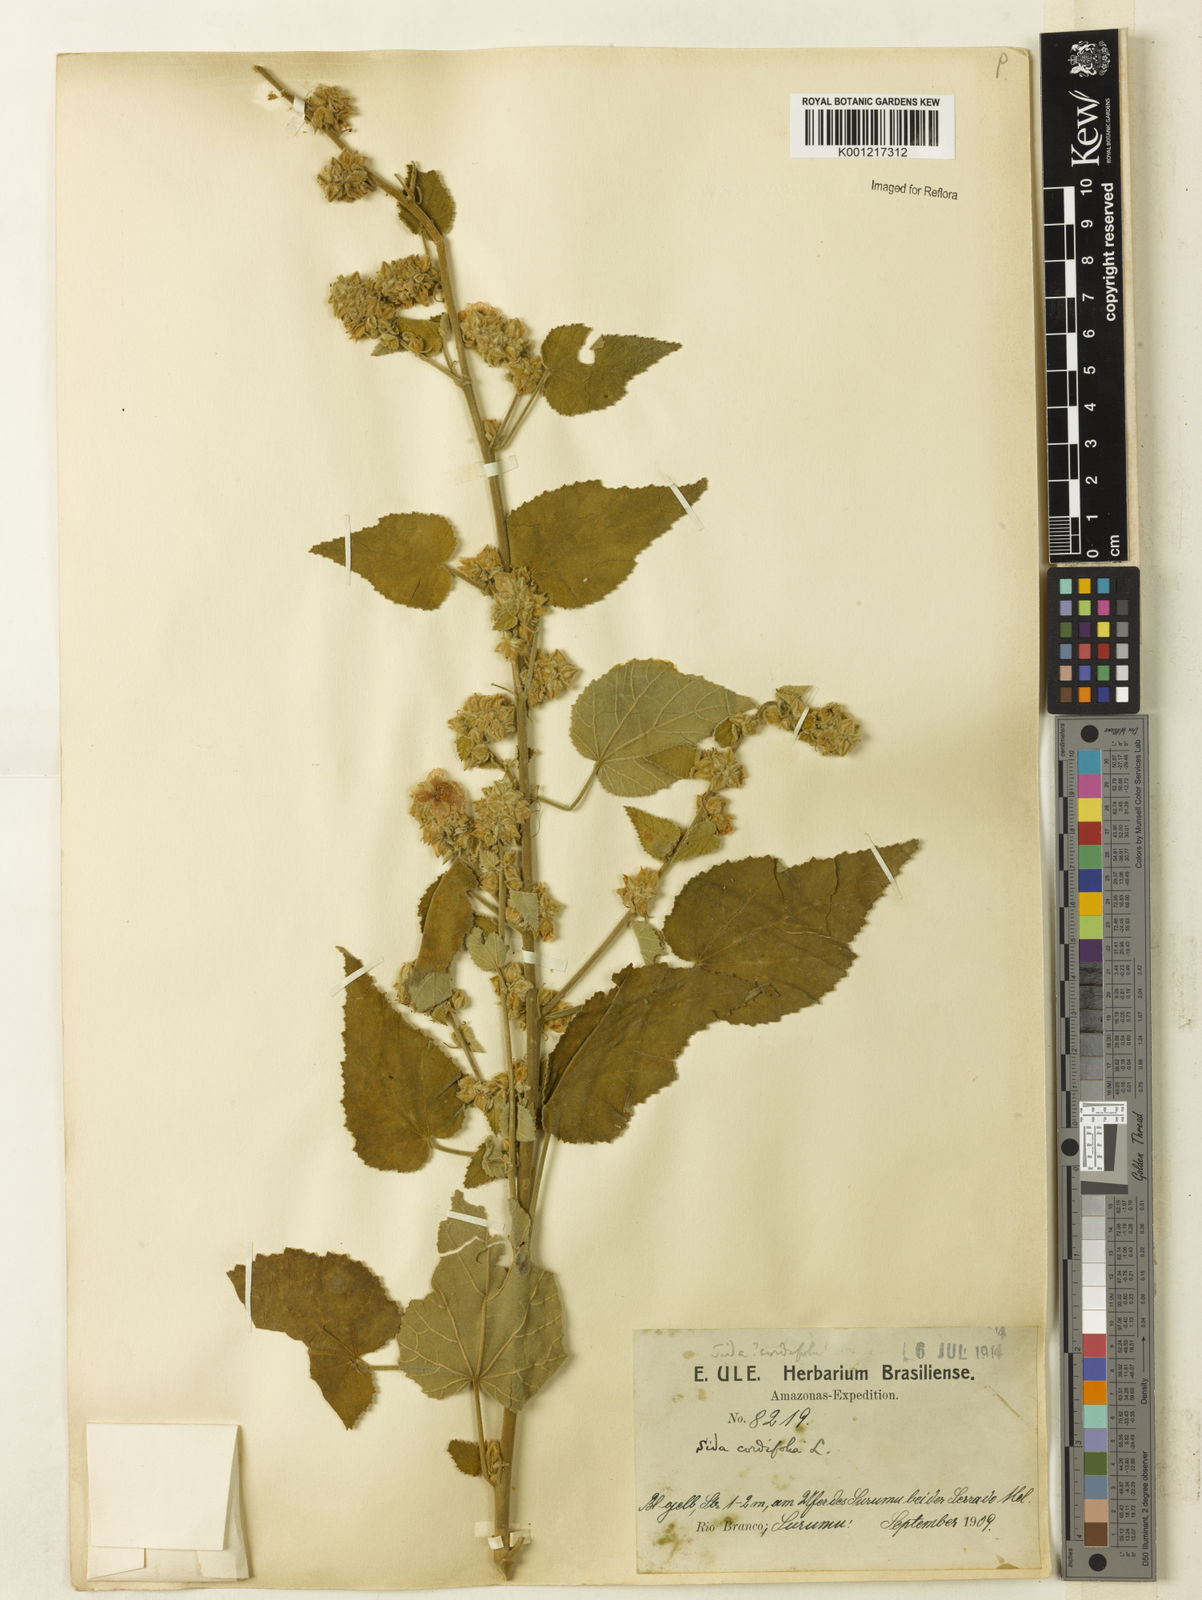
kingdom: Plantae
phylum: Tracheophyta
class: Magnoliopsida
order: Malvales
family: Malvaceae
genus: Sida
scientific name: Sida cordifolia
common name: Ilima
